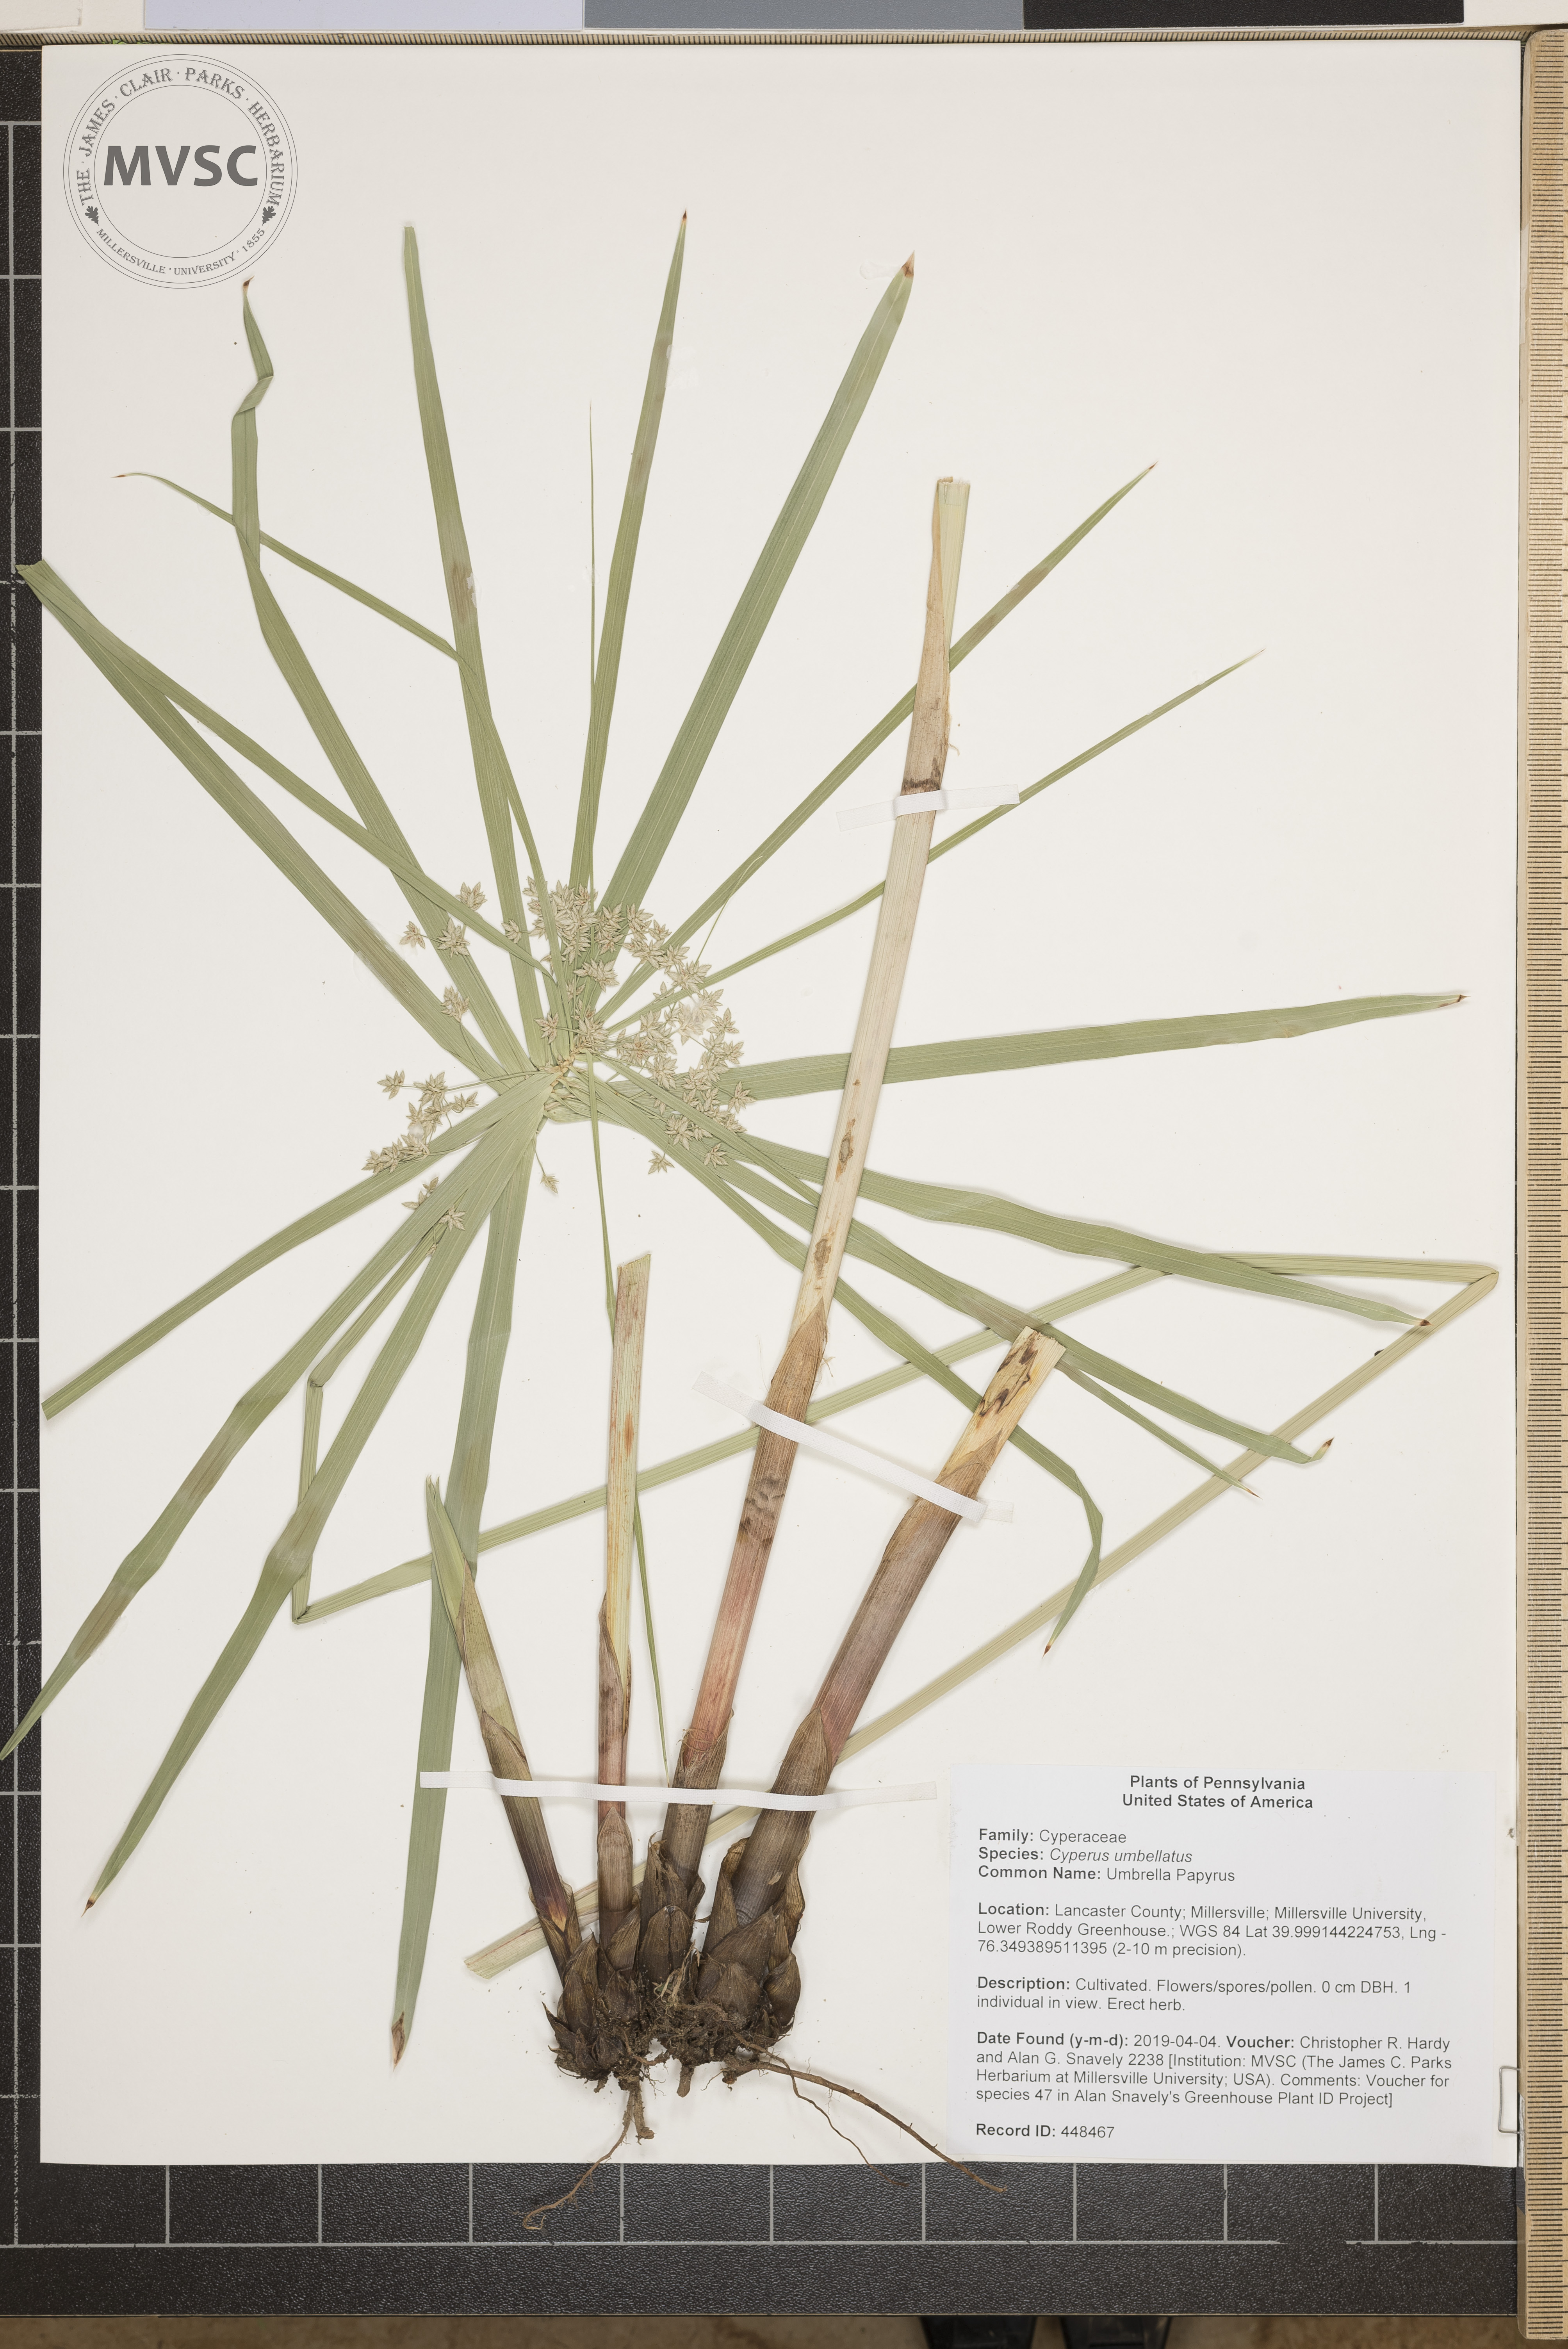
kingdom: Plantae
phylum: Tracheophyta
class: Liliopsida
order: Poales
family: Cyperaceae
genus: Cyperus
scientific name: Cyperus umbellatus
